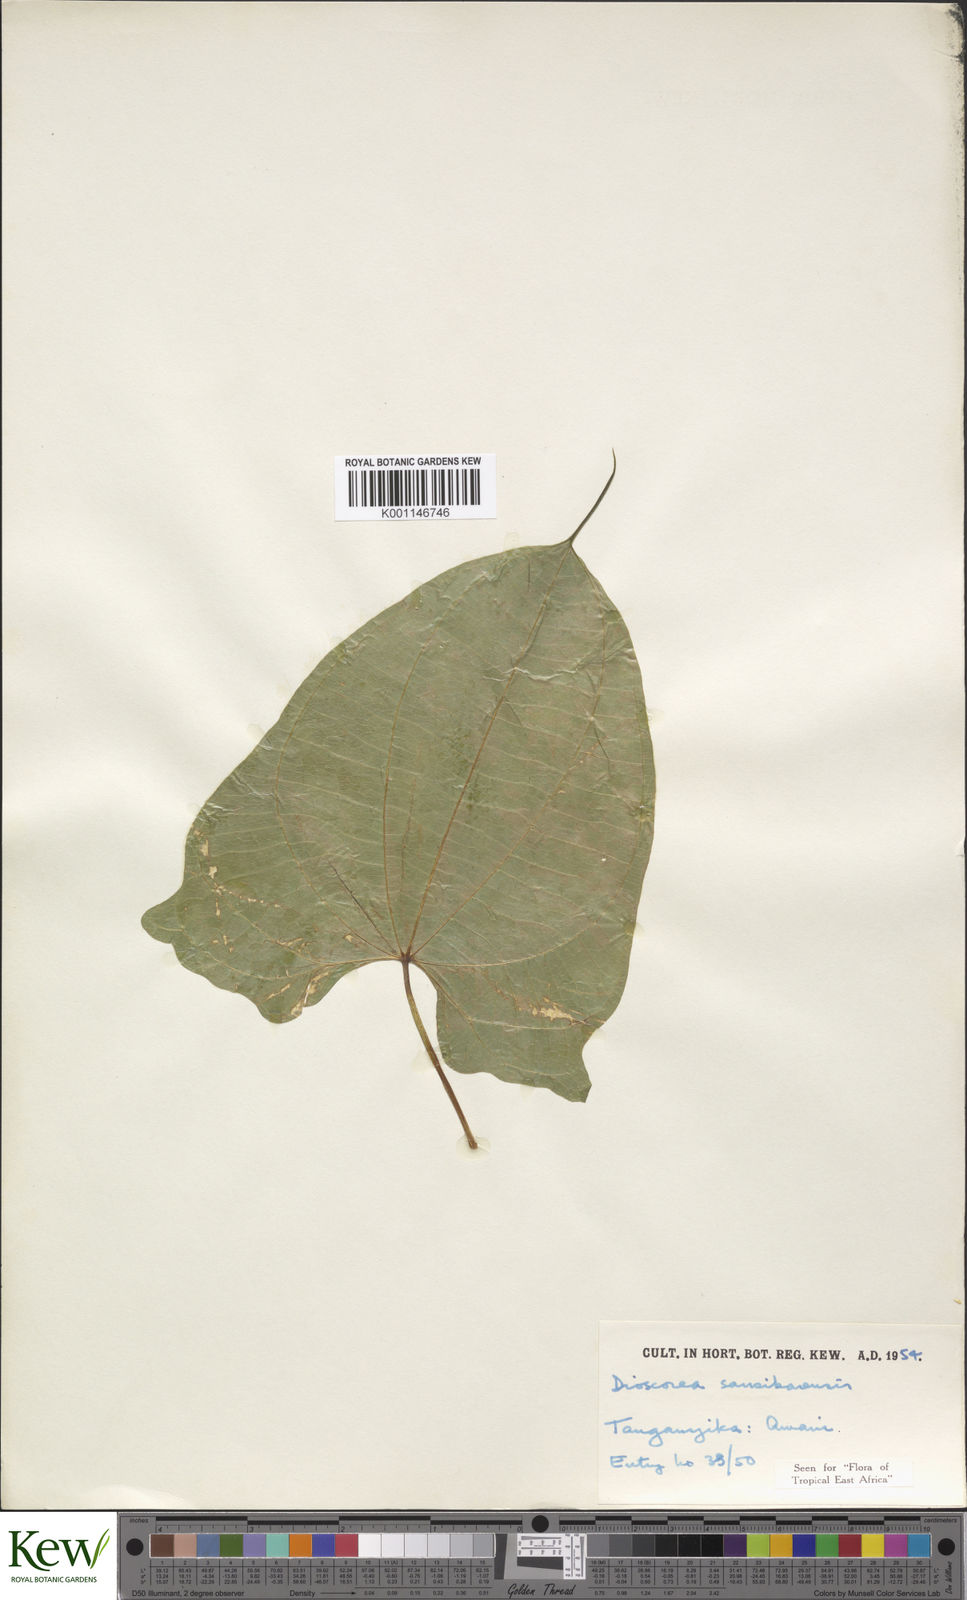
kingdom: Plantae
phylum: Tracheophyta
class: Liliopsida
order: Dioscoreales
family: Dioscoreaceae
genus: Dioscorea
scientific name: Dioscorea sansibarensis
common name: Zanzibar yam
